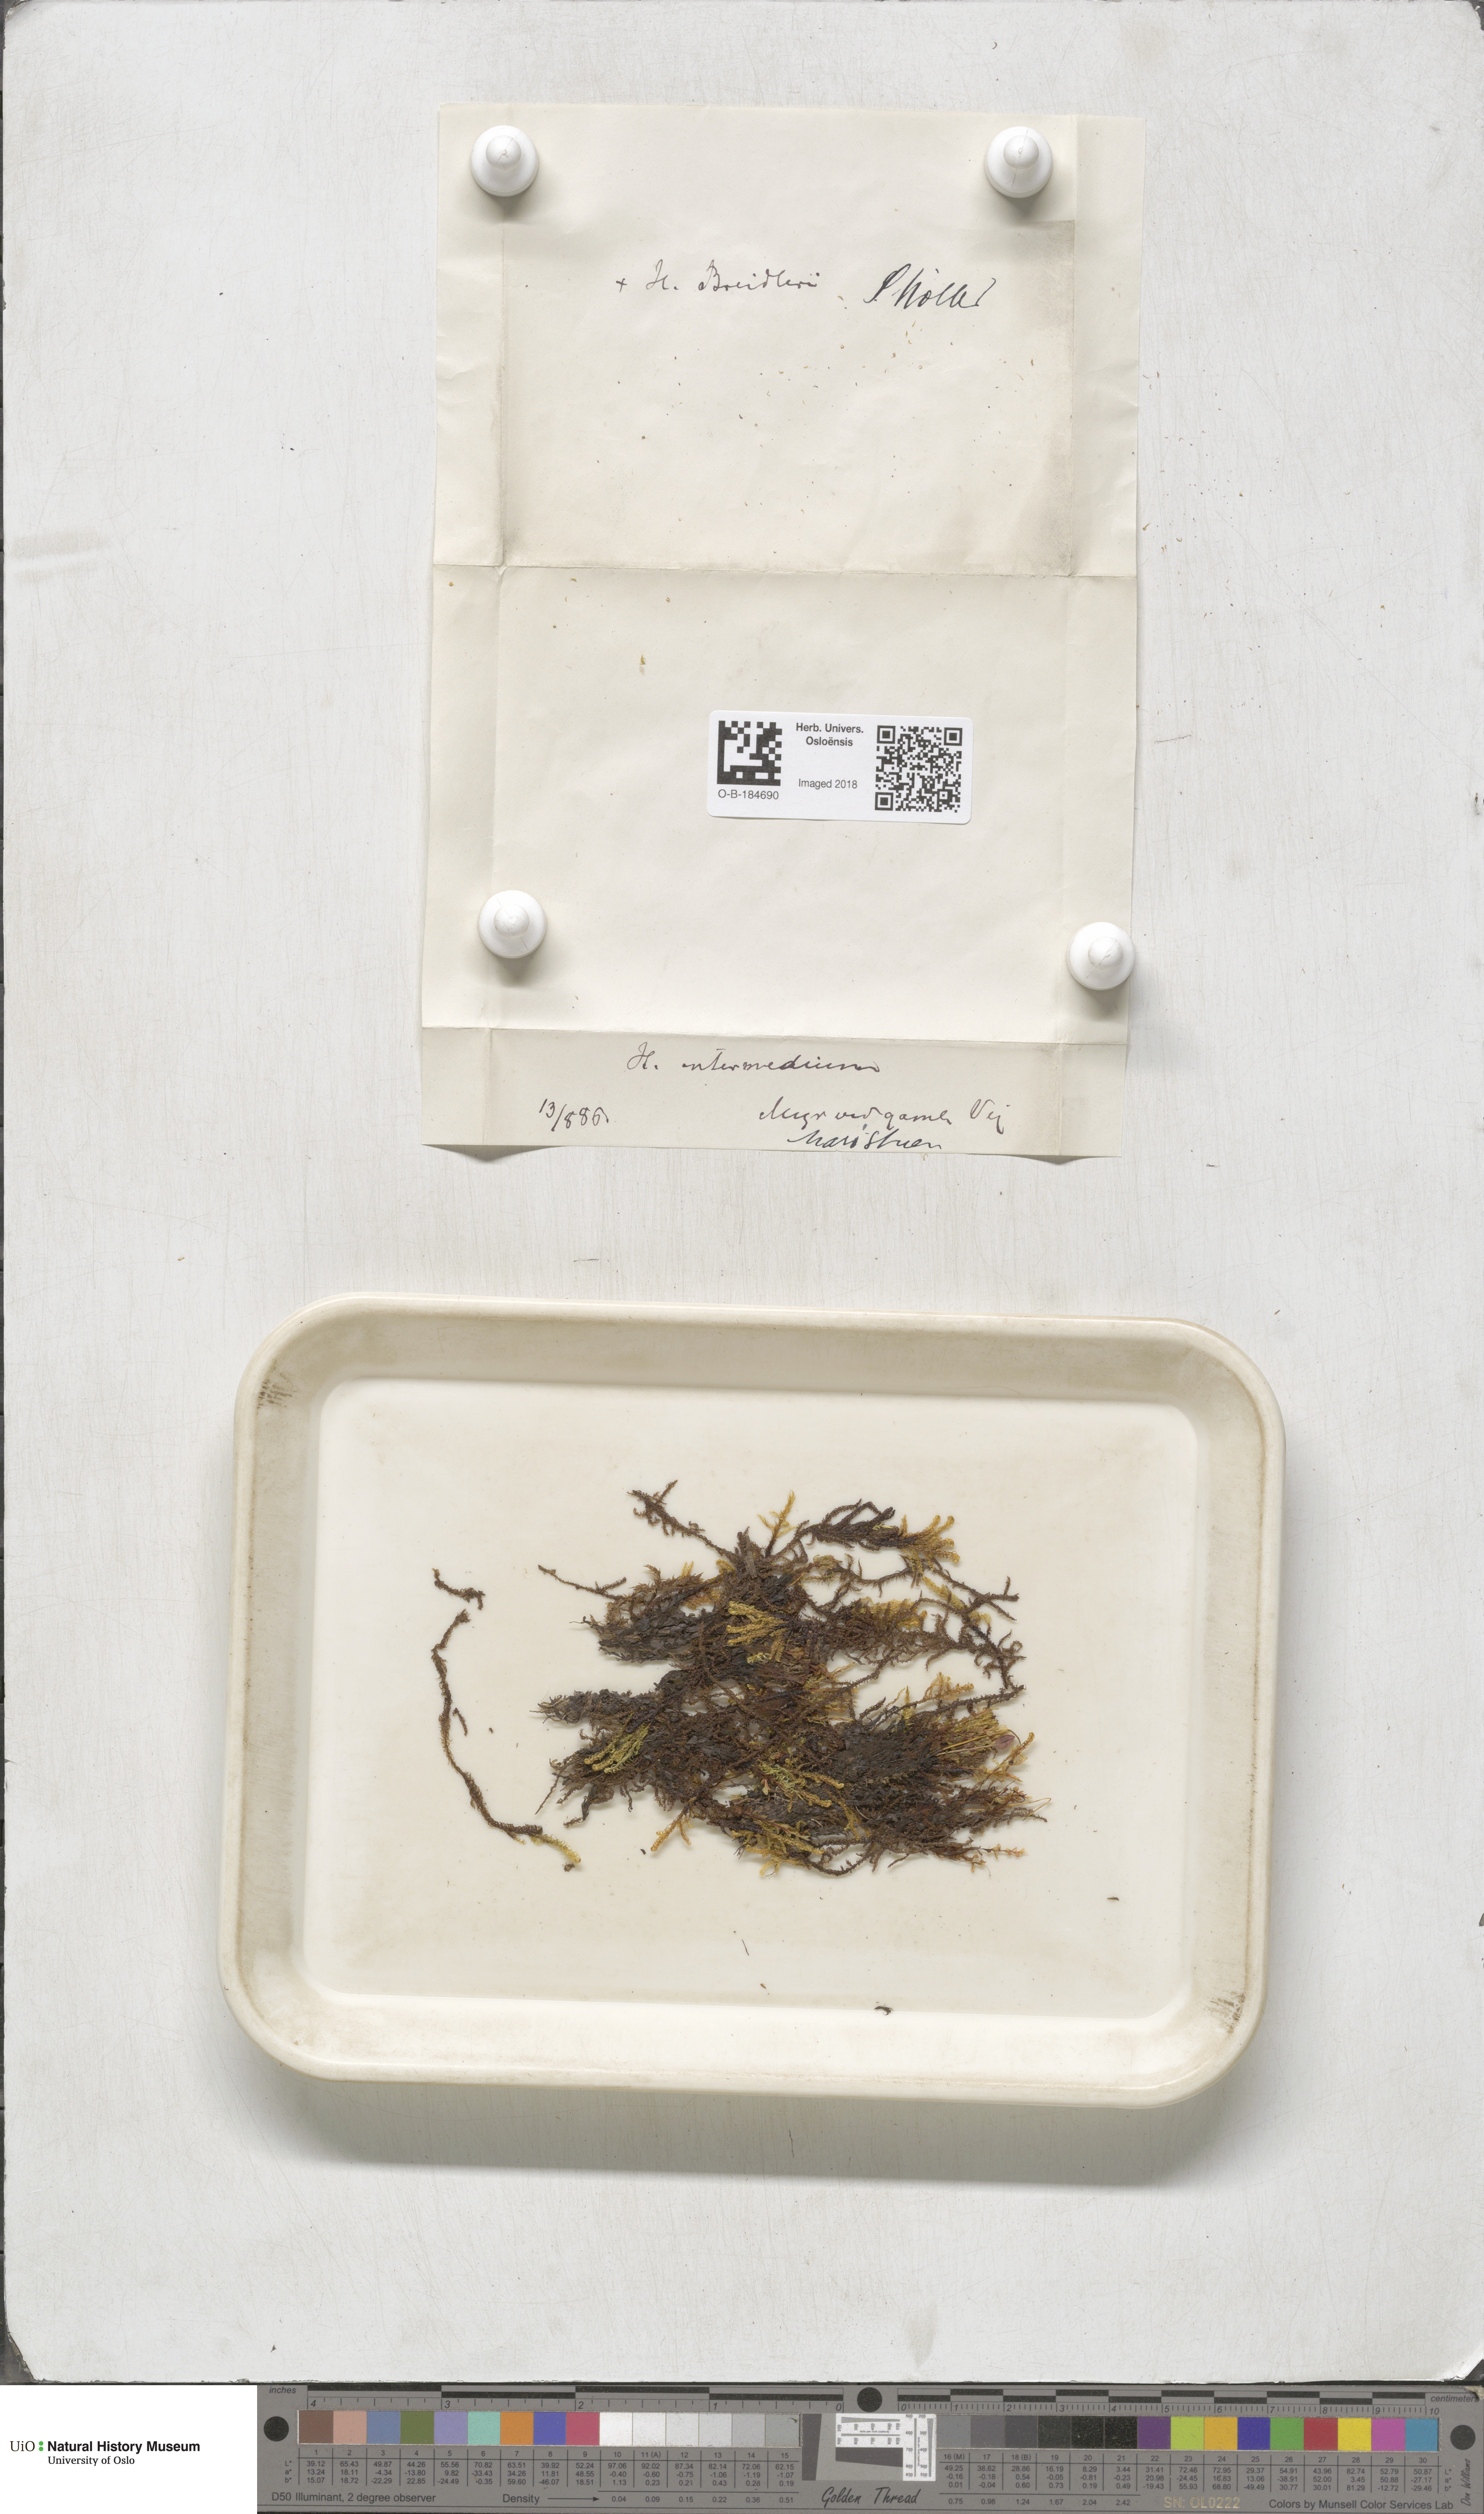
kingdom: Plantae
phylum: Bryophyta
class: Bryopsida
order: Hypnales
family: Scorpidiaceae
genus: Scorpidium
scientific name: Scorpidium cossonii
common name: Cosson's hook moss
